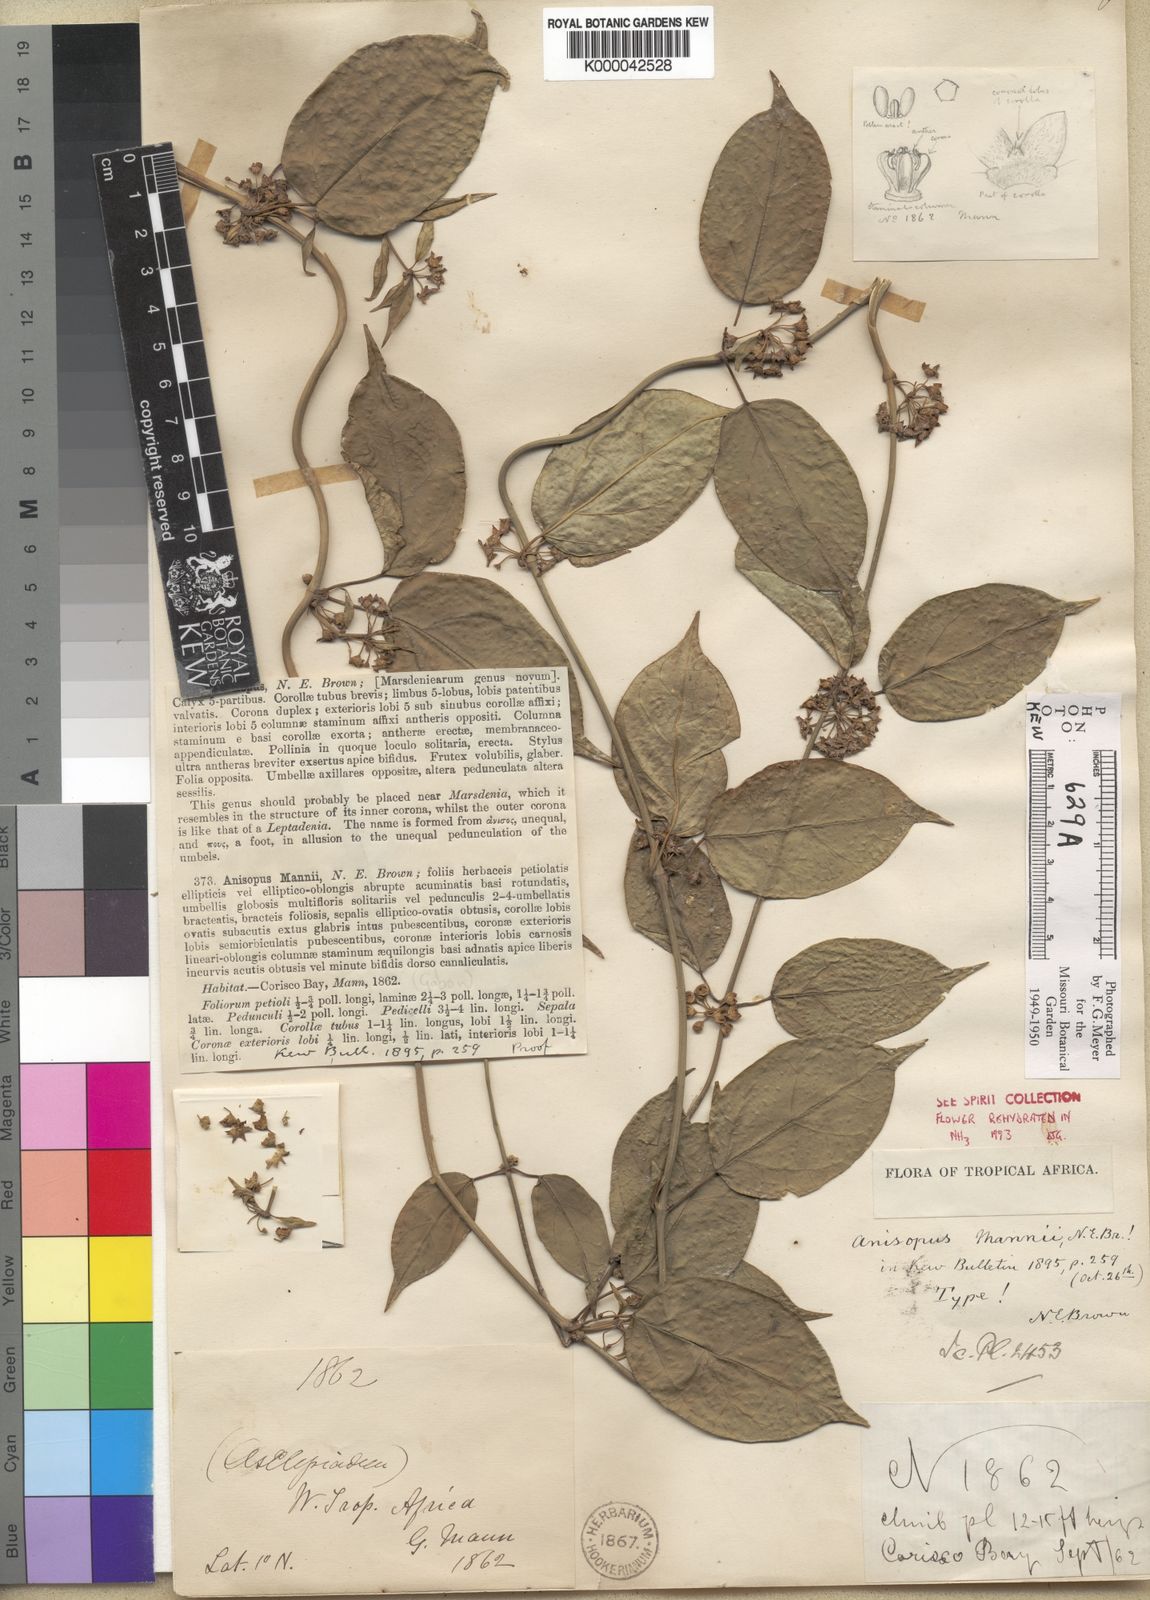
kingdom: Plantae
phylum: Tracheophyta
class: Magnoliopsida
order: Gentianales
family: Apocynaceae
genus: Anisopus
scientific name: Anisopus mannii
